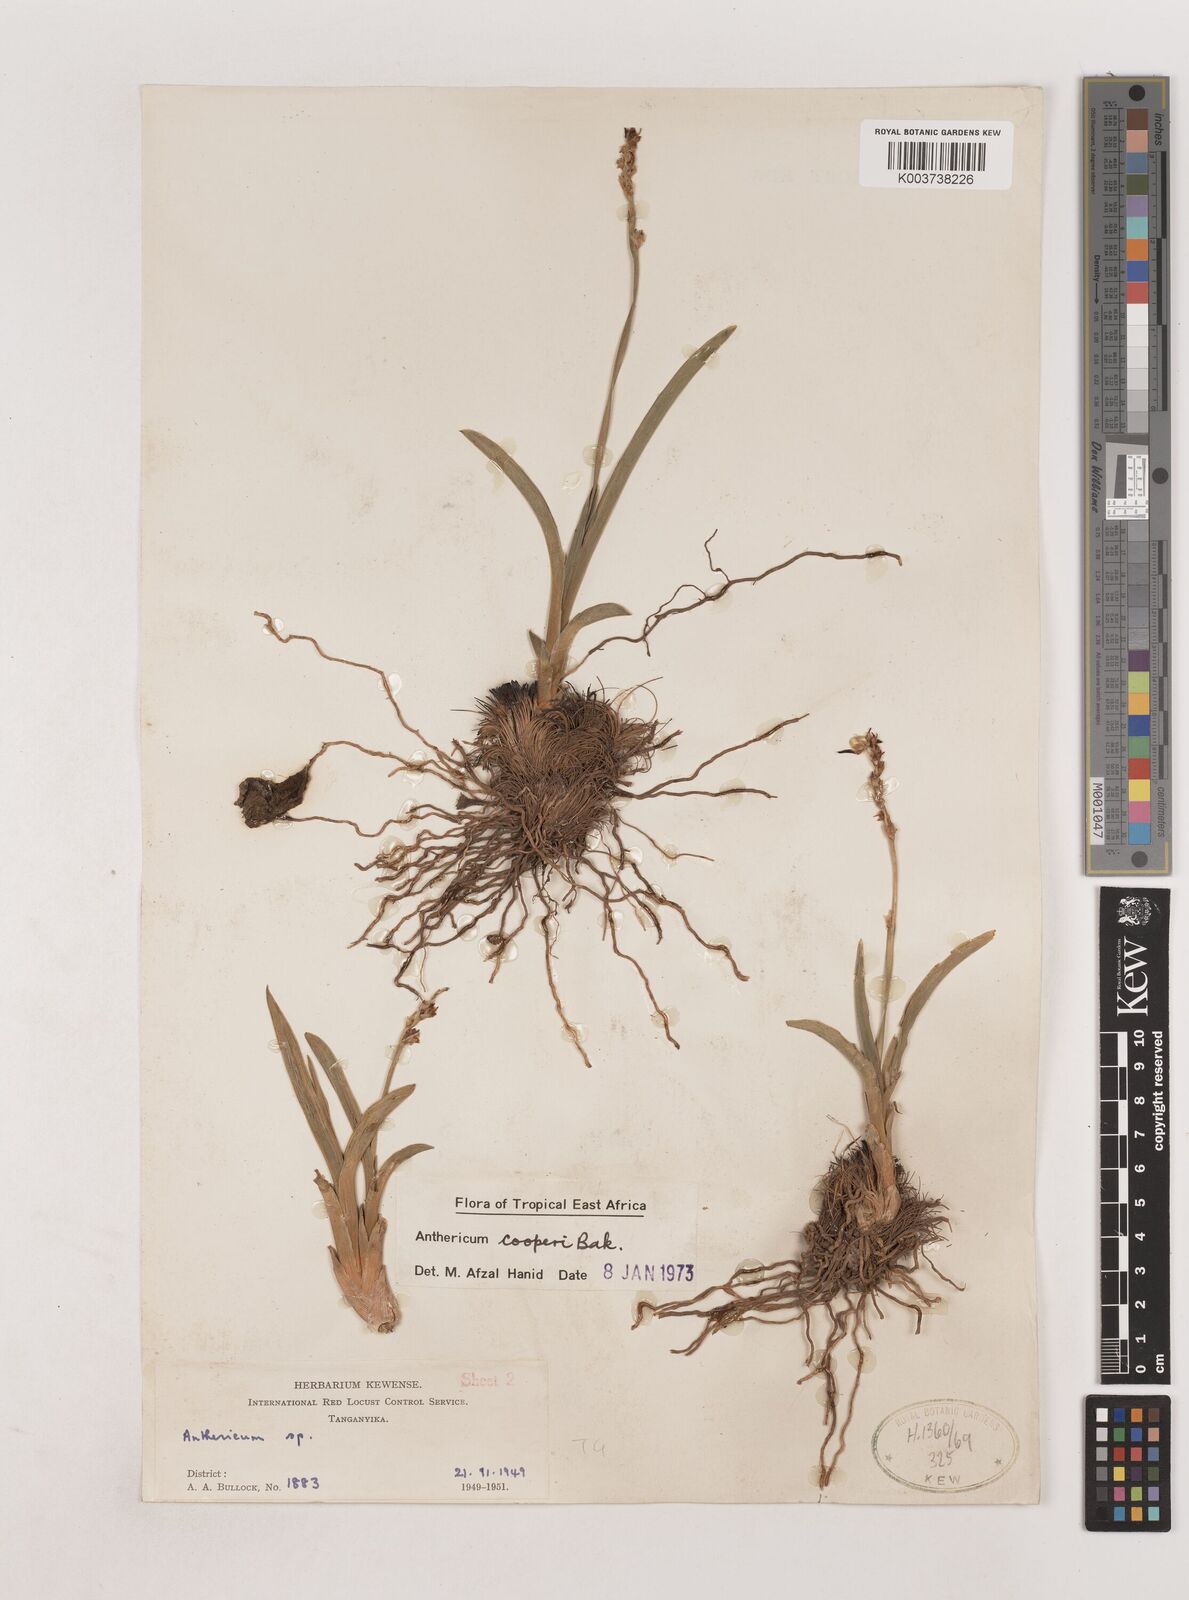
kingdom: Plantae
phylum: Tracheophyta
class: Liliopsida
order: Asparagales
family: Asparagaceae
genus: Chlorophytum
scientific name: Chlorophytum cameronii
